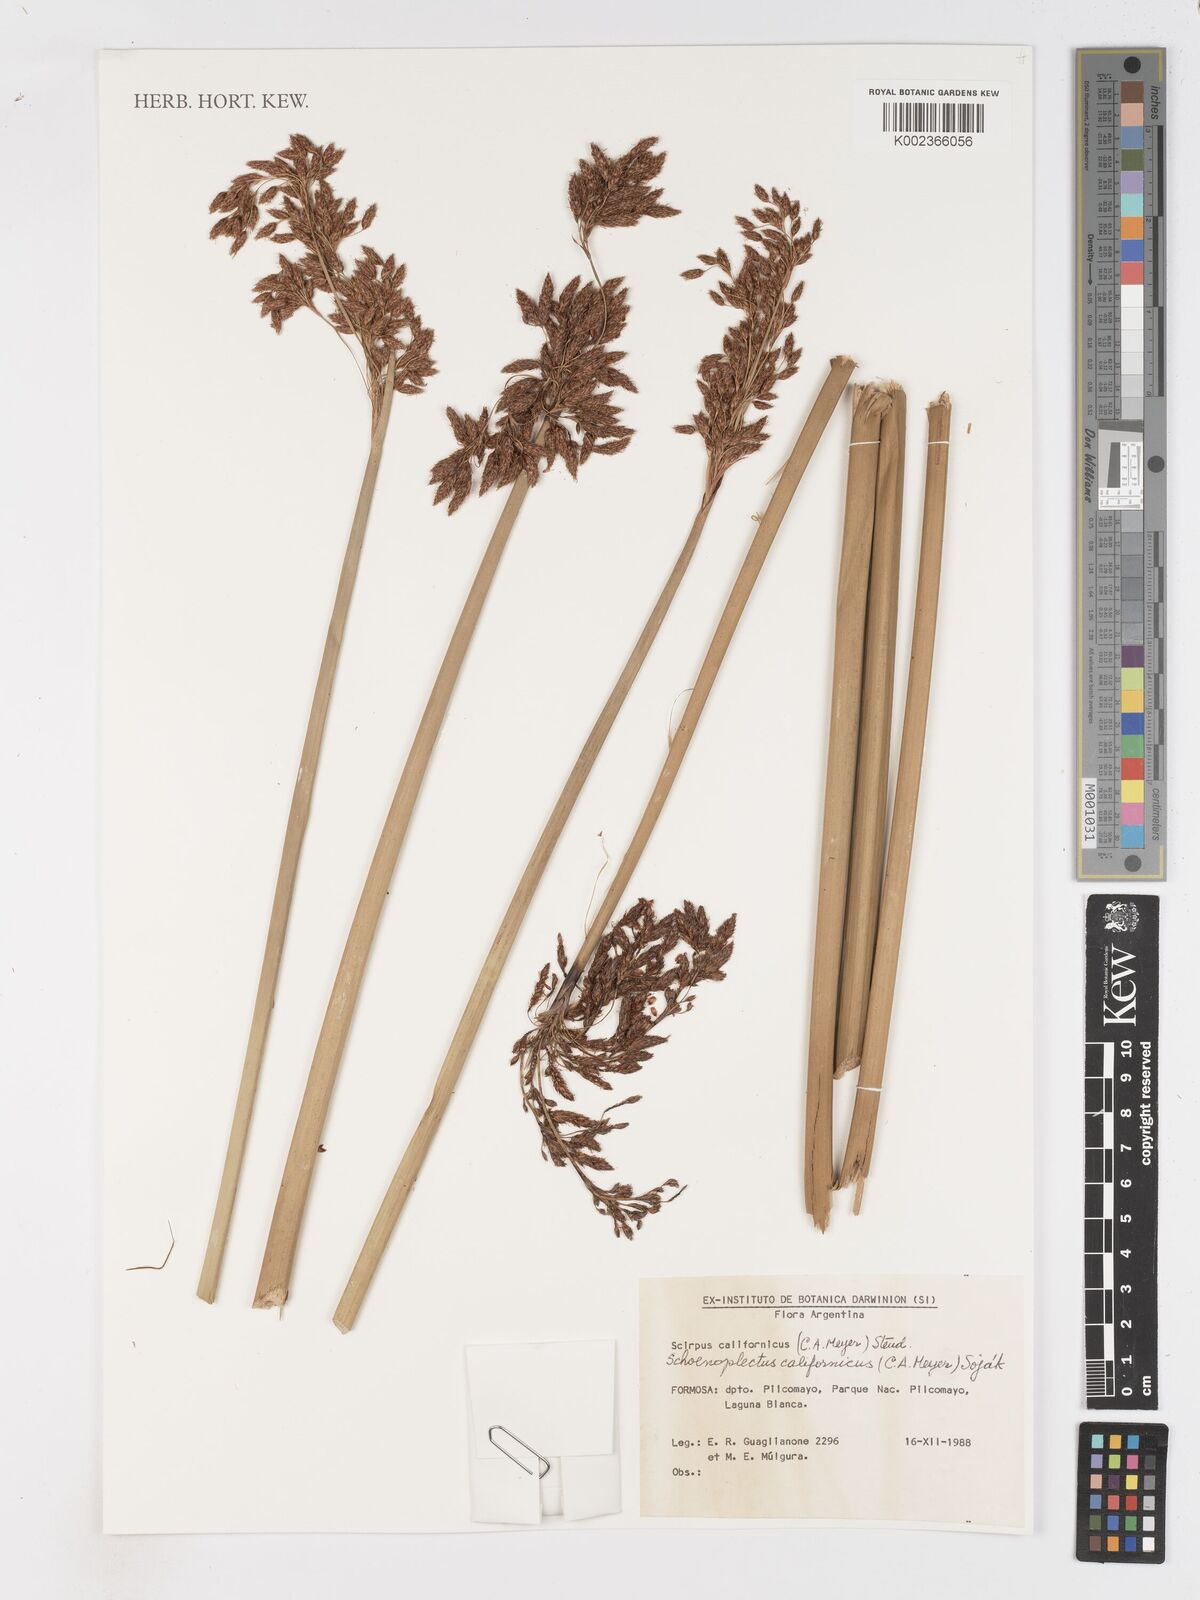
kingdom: Plantae
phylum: Tracheophyta
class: Liliopsida
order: Poales
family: Cyperaceae
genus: Schoenoplectus
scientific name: Schoenoplectus californicus
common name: California bulrush
